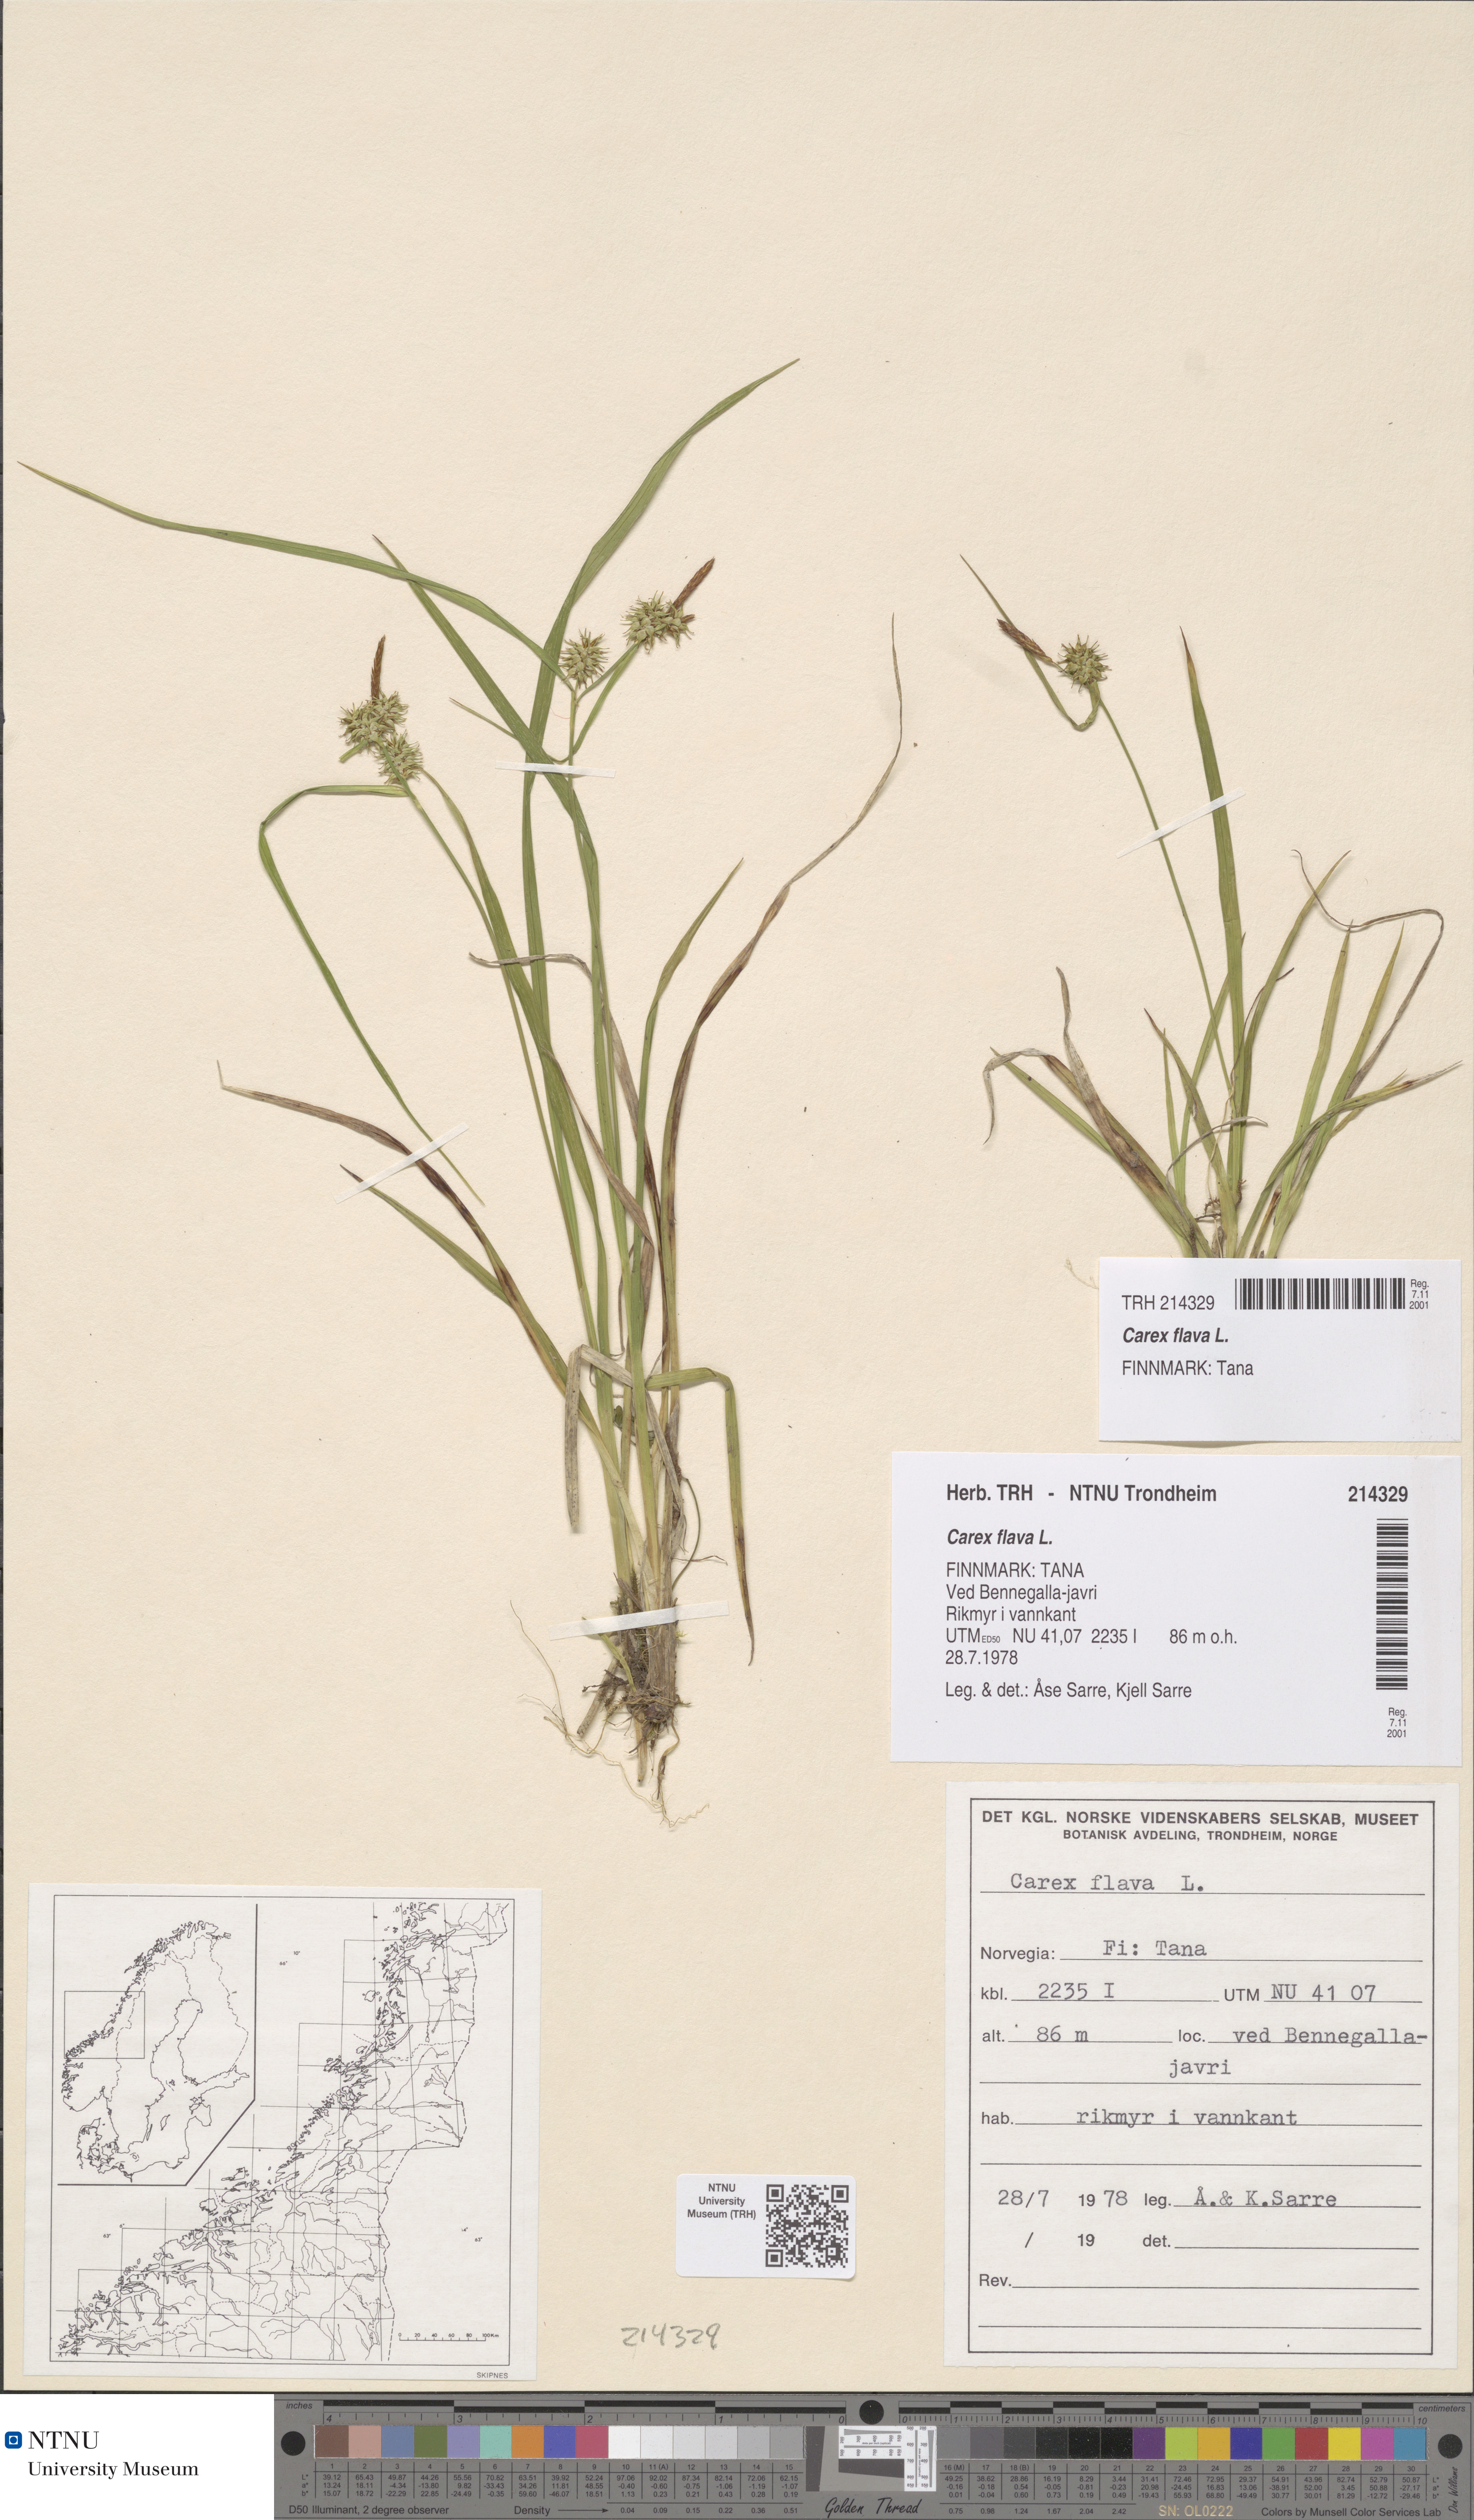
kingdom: Plantae
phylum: Tracheophyta
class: Liliopsida
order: Poales
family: Cyperaceae
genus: Carex
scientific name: Carex flava
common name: Large yellow-sedge
